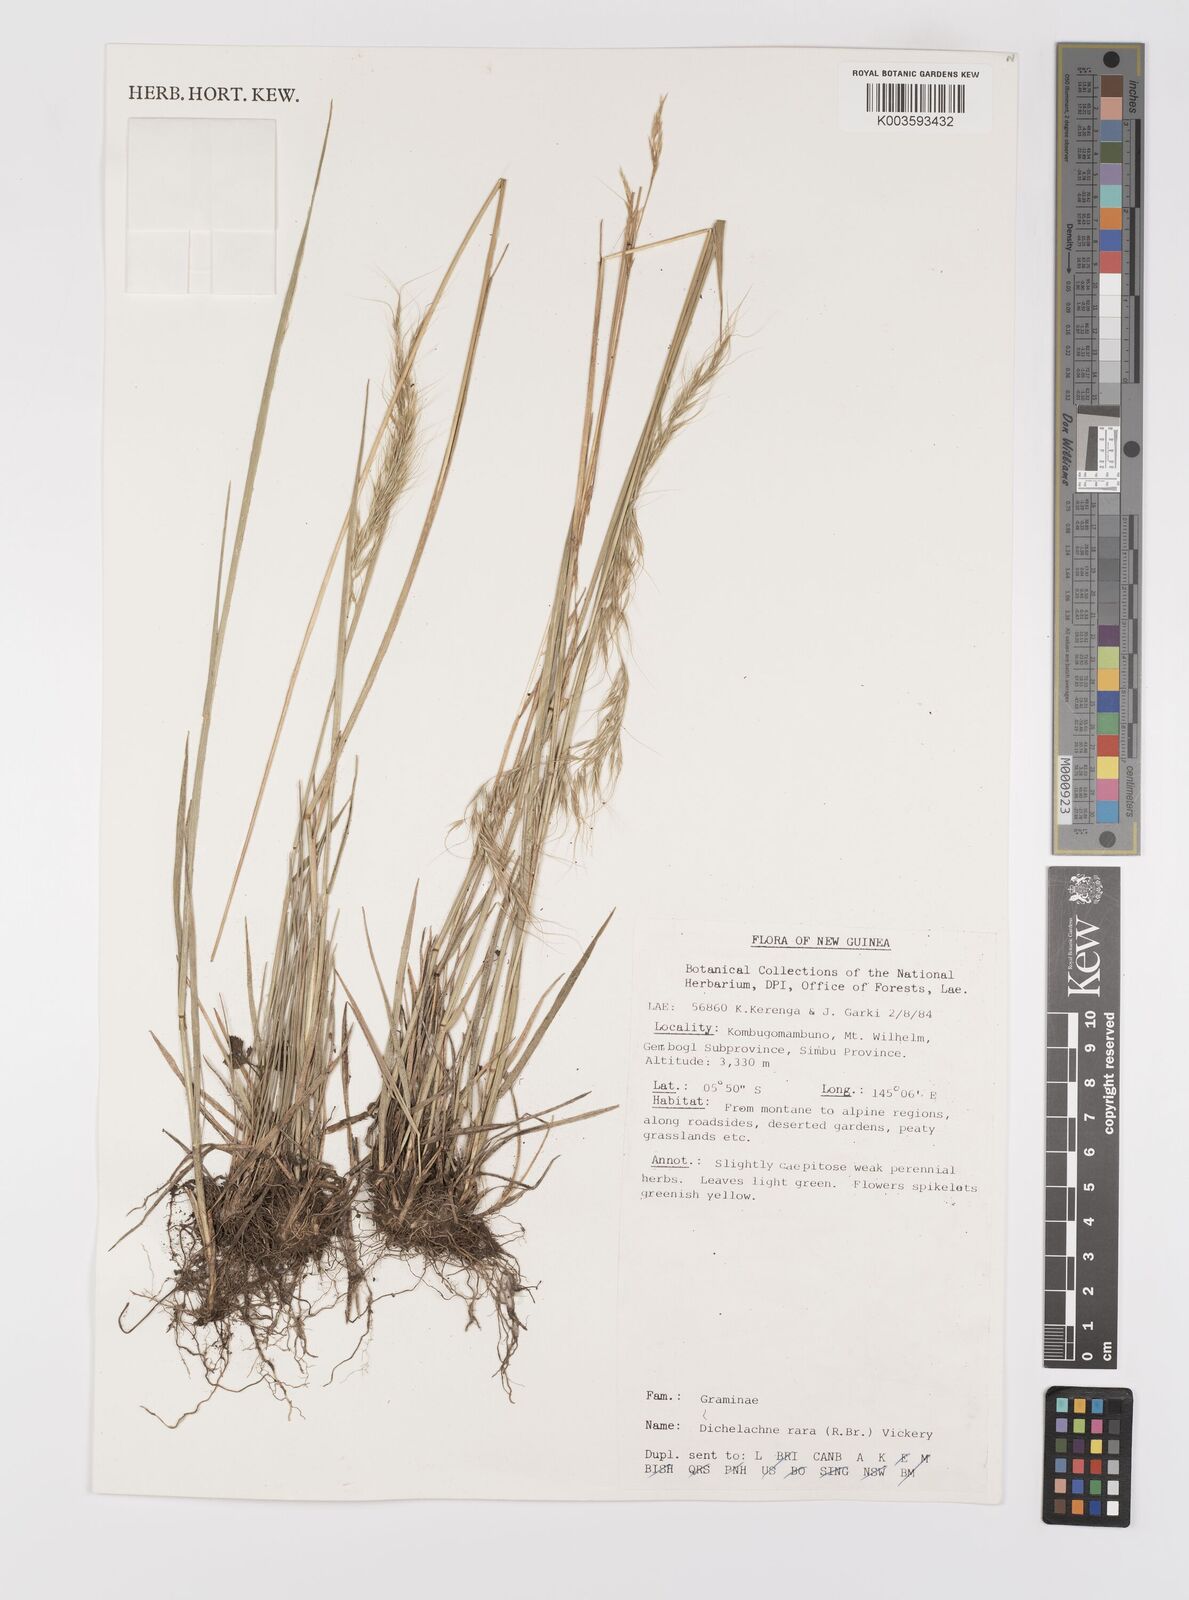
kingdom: Plantae
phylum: Tracheophyta
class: Liliopsida
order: Poales
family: Poaceae
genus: Dichelachne
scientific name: Dichelachne rara
